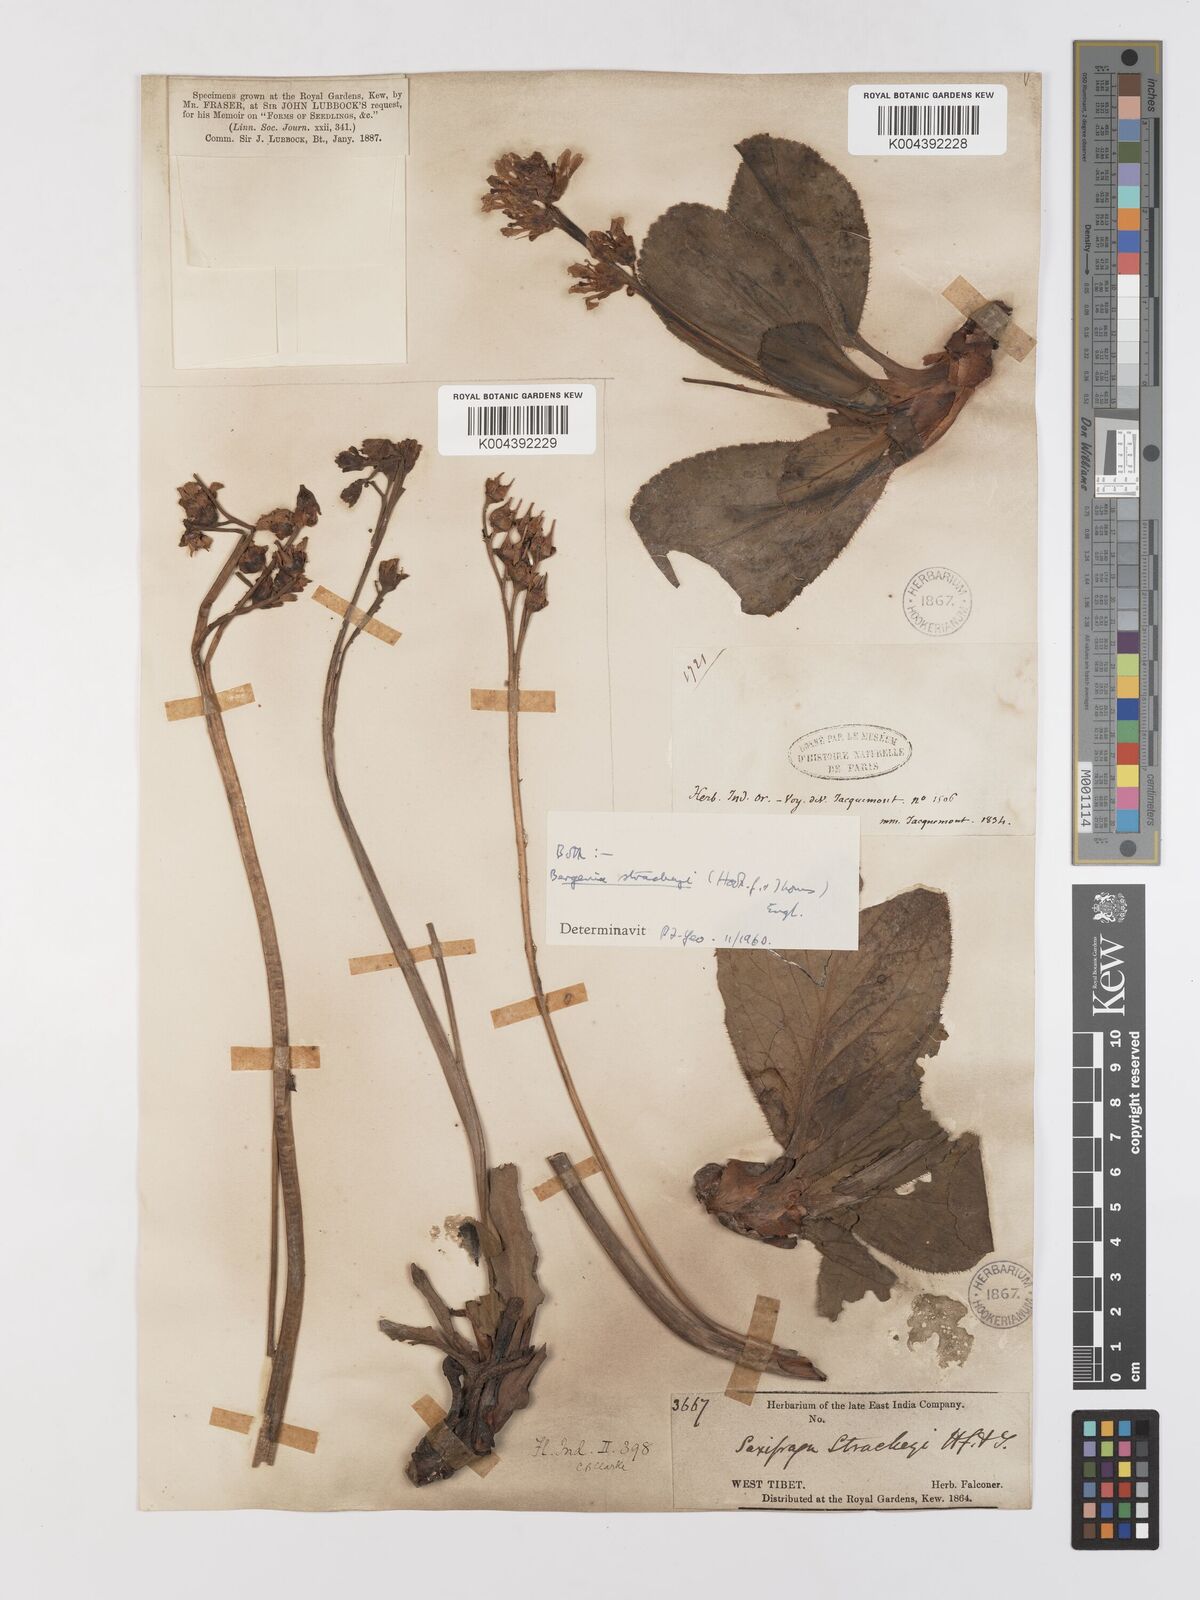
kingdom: Plantae
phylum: Tracheophyta
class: Magnoliopsida
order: Saxifragales
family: Saxifragaceae
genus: Bergenia
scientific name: Bergenia stracheyi
